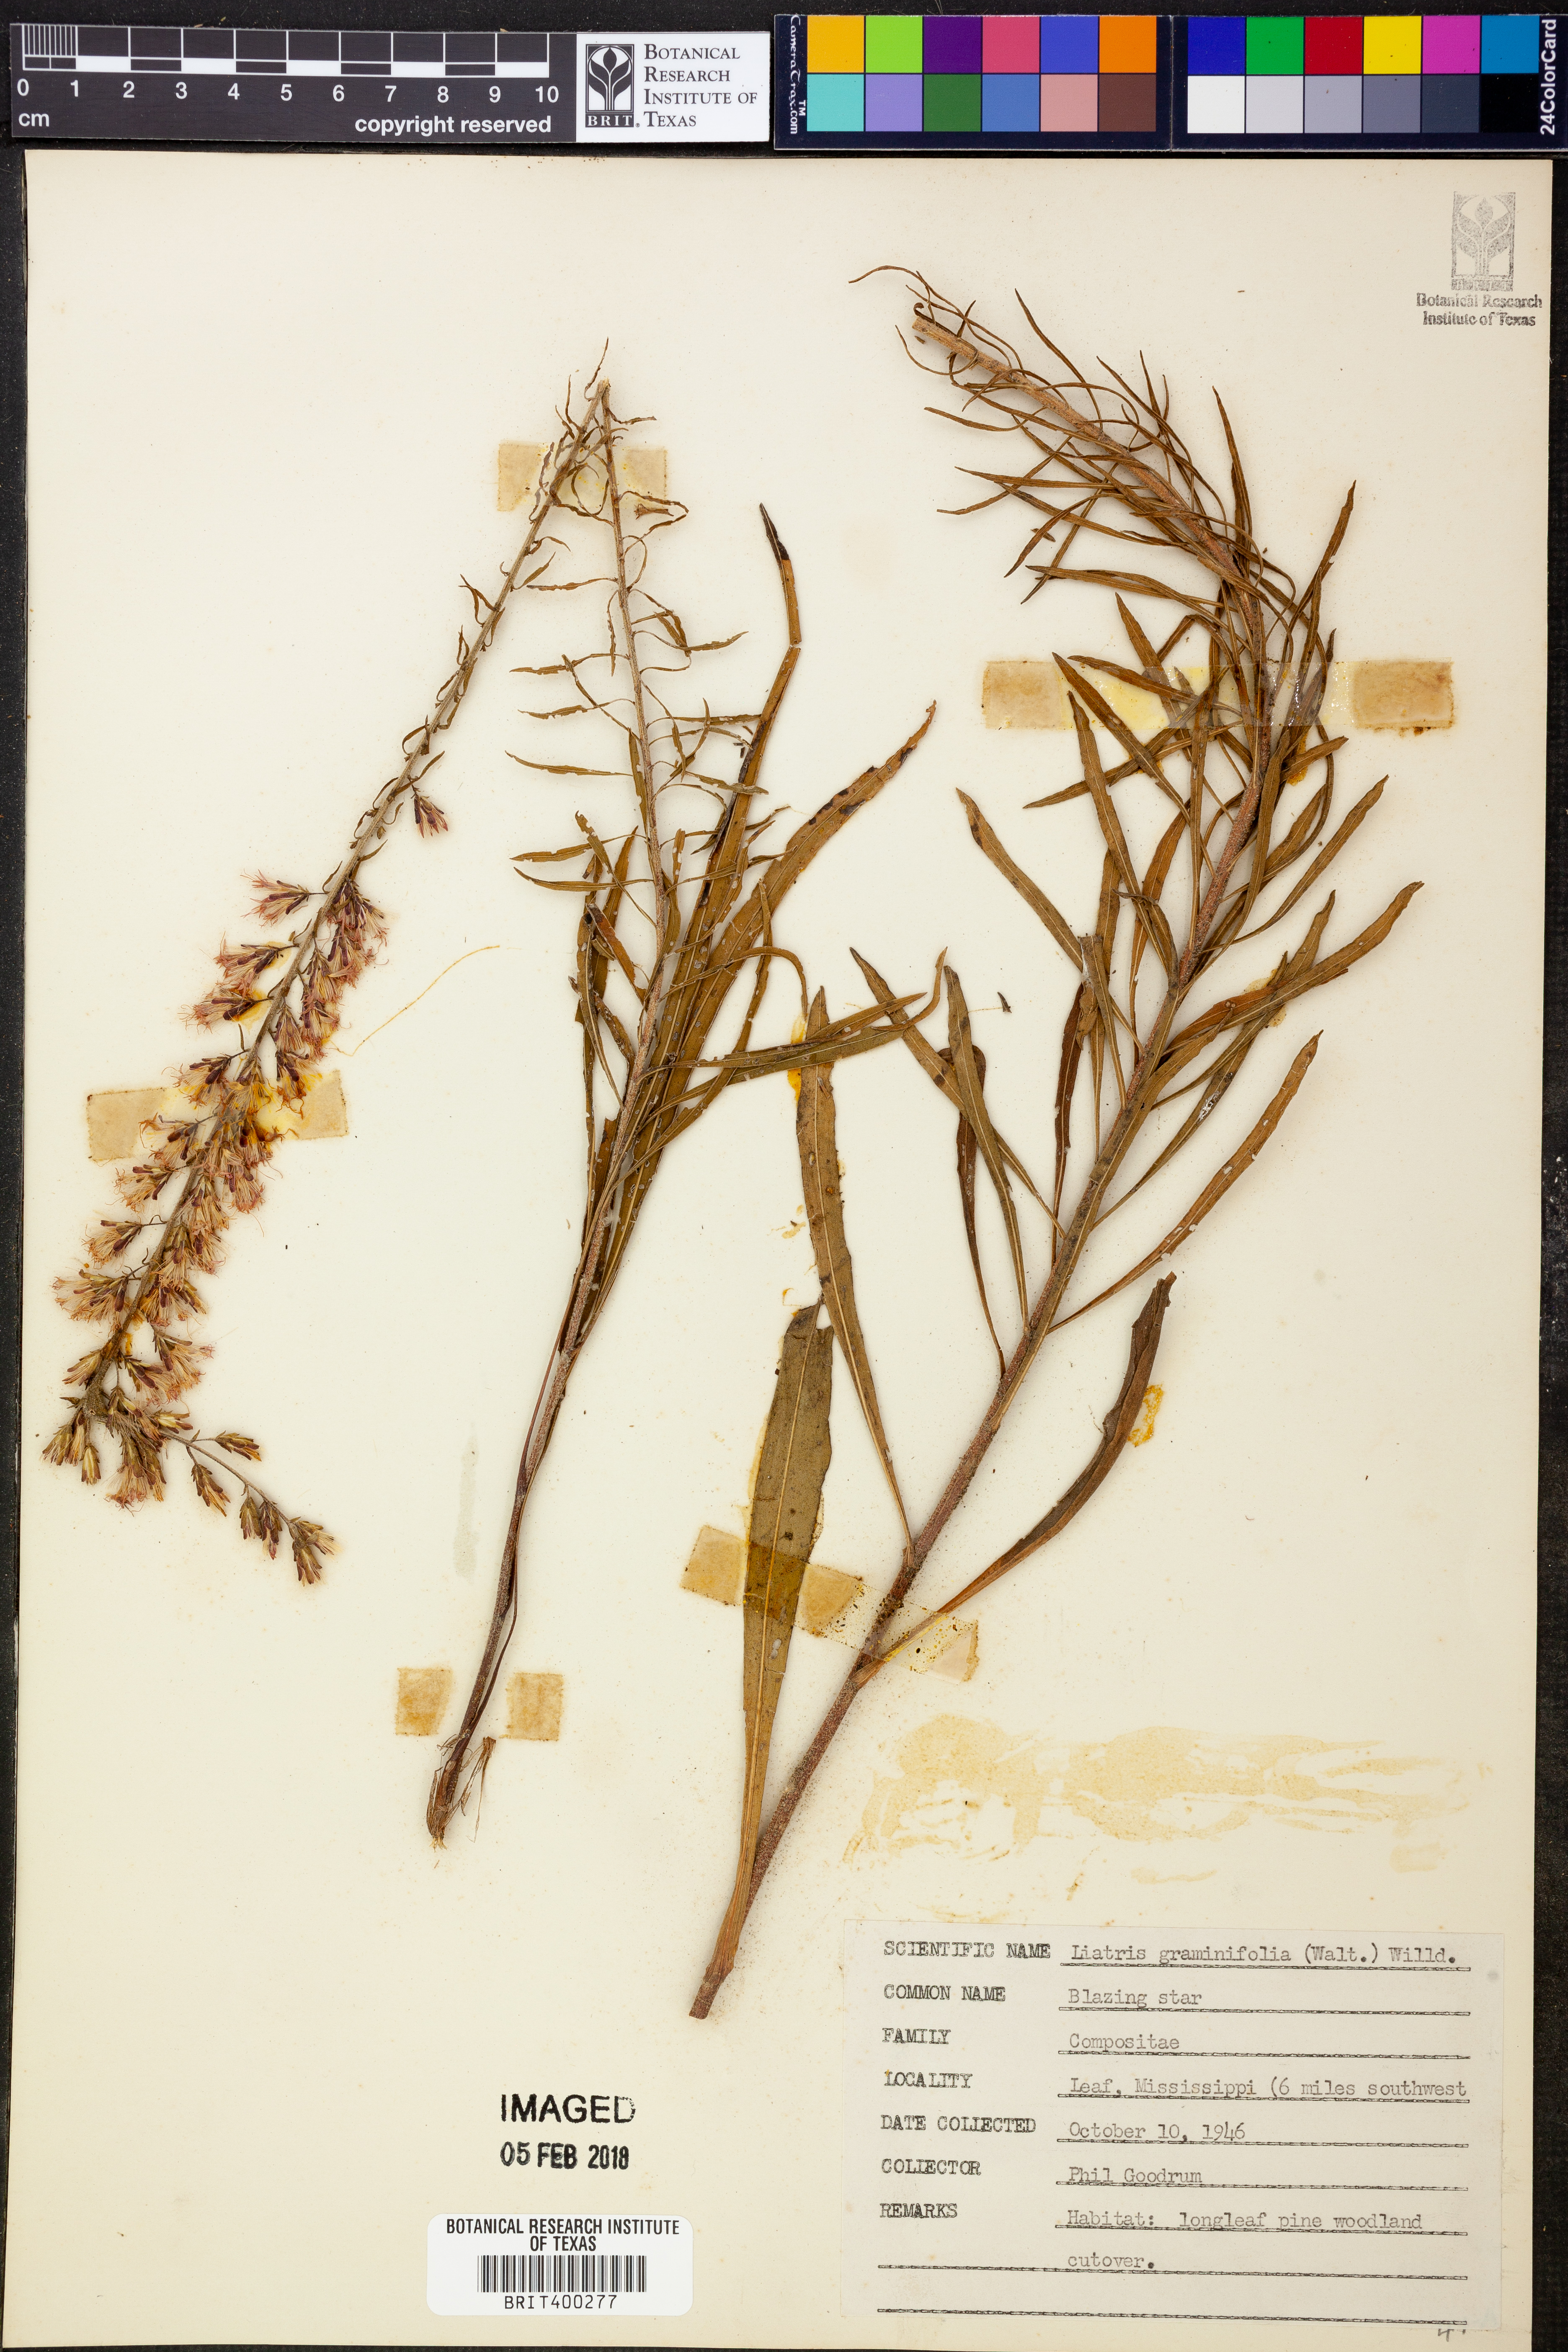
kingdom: Plantae
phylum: Tracheophyta
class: Magnoliopsida
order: Asterales
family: Asteraceae
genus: Liatris
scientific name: Liatris pilosa
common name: Grass-leaf gayfeather
